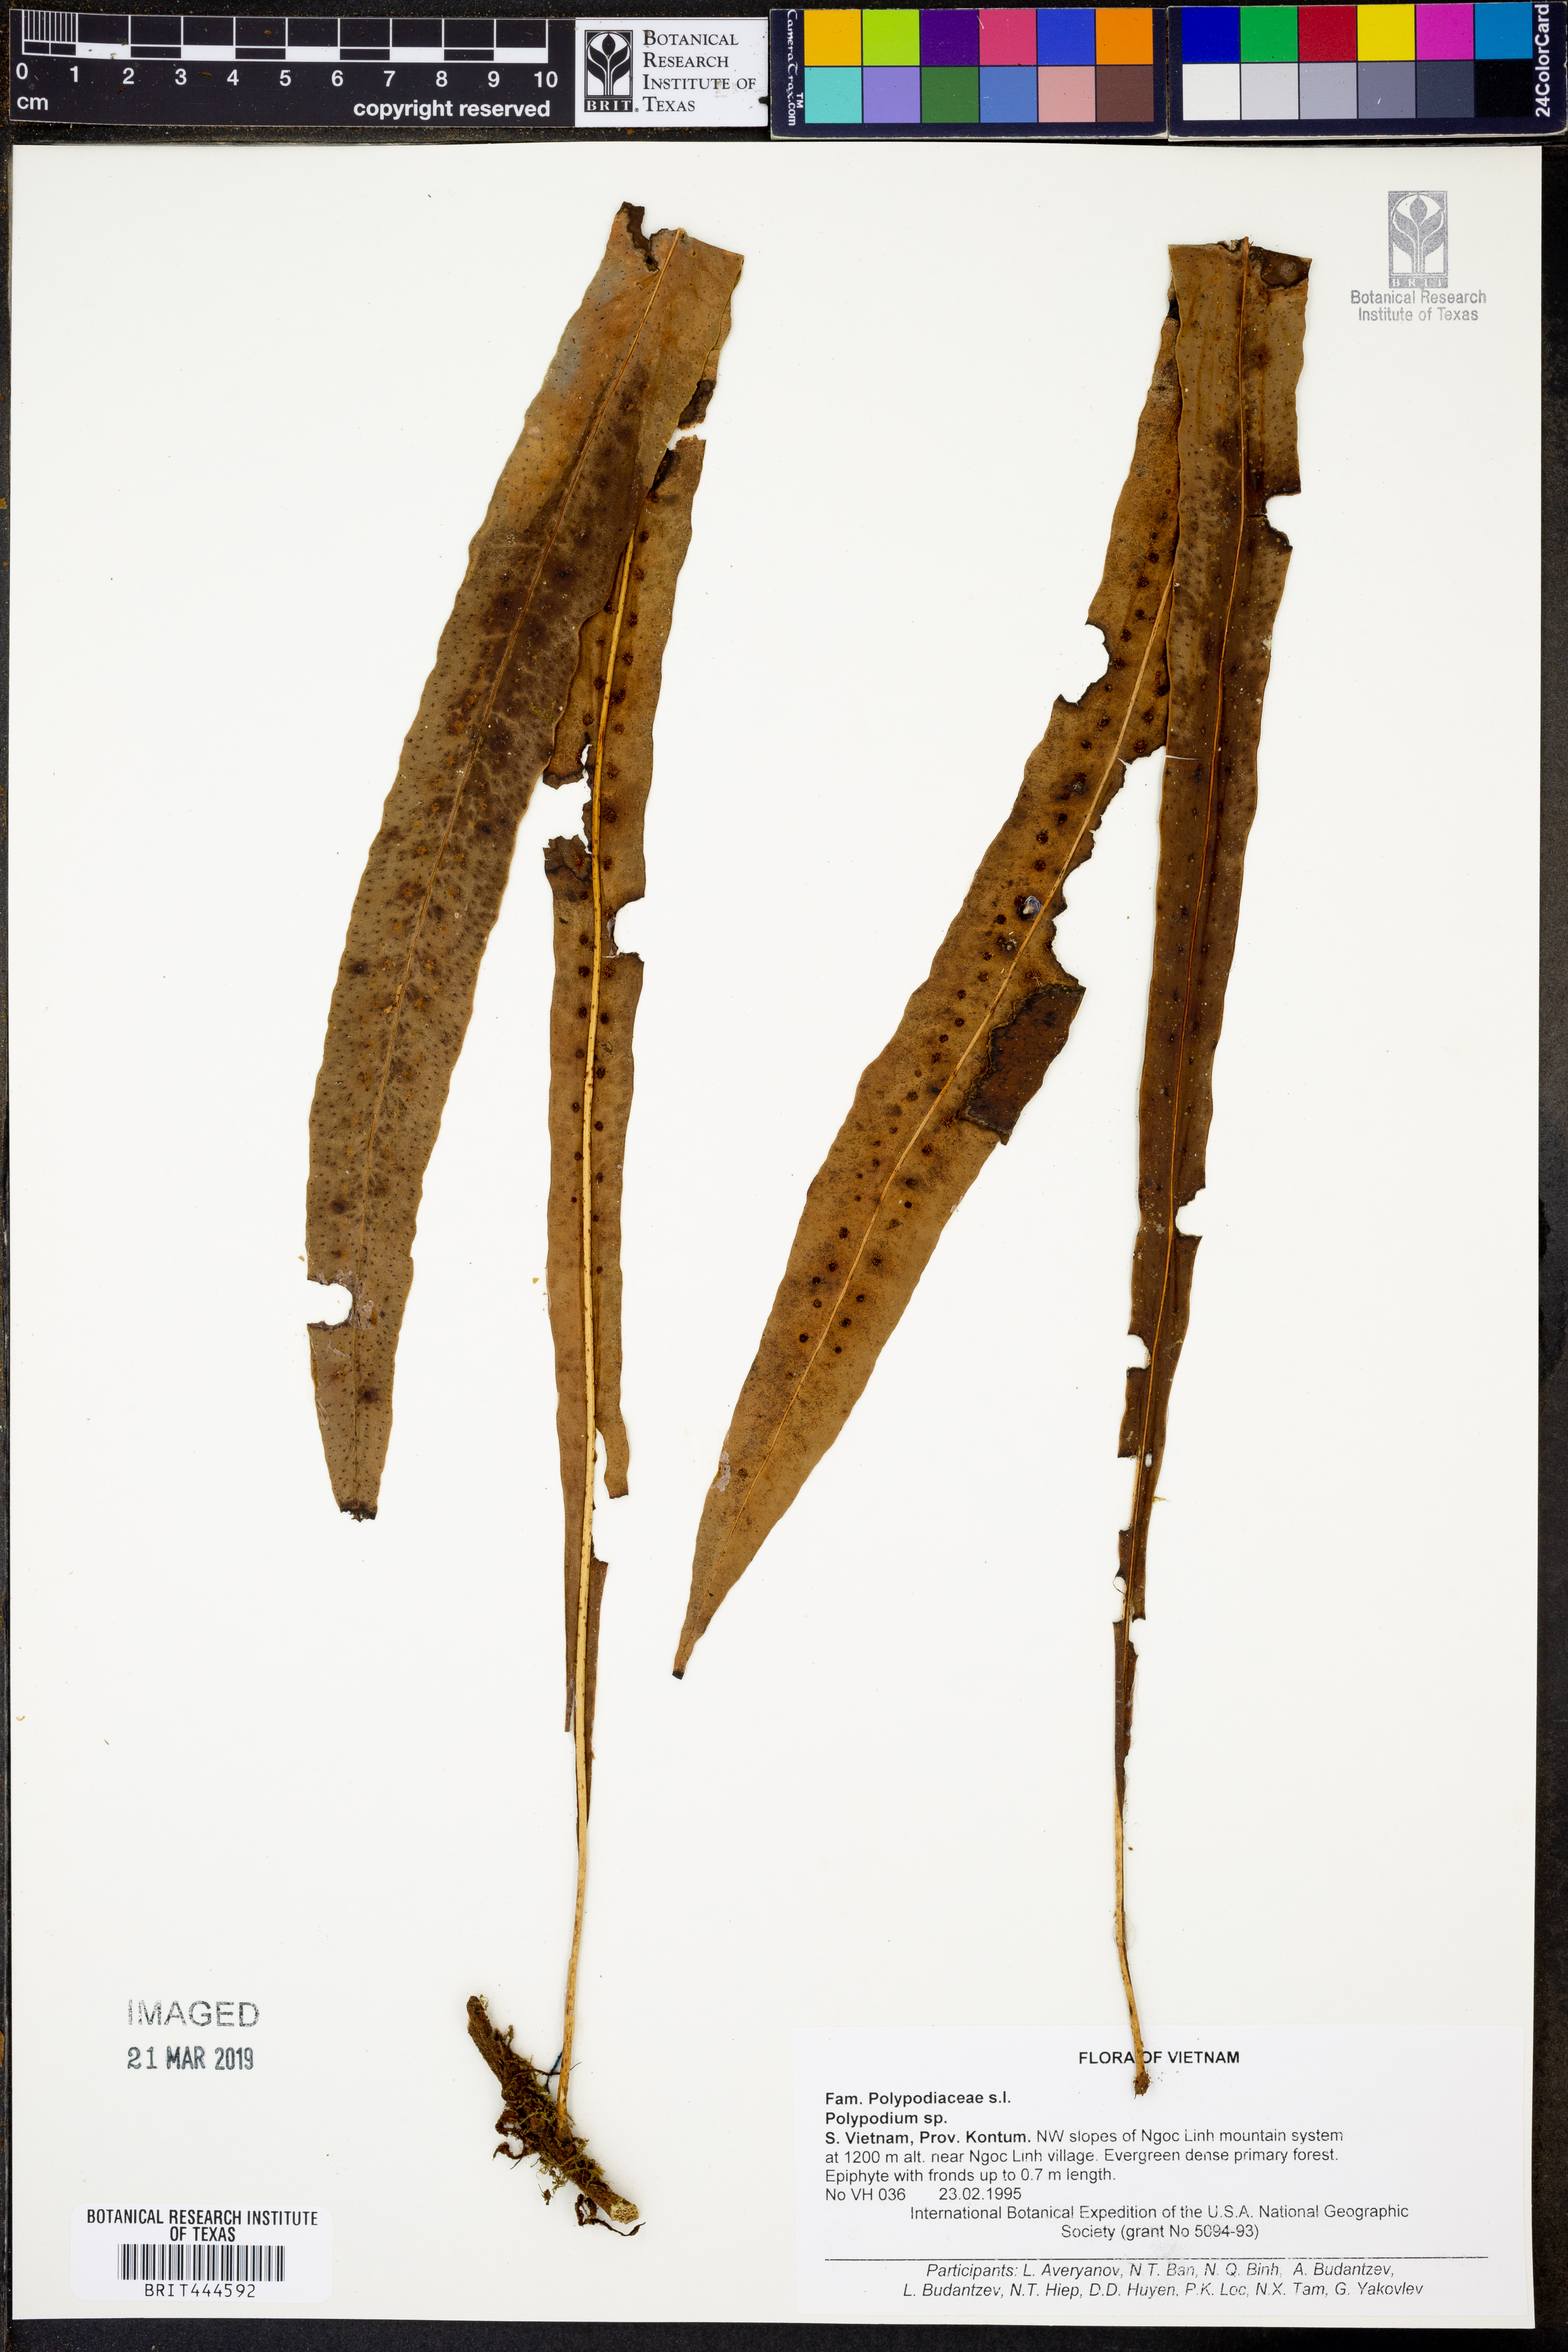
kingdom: Plantae
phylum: Tracheophyta
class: Polypodiopsida
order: Polypodiales
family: Polypodiaceae
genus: Polypodium
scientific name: Polypodium
